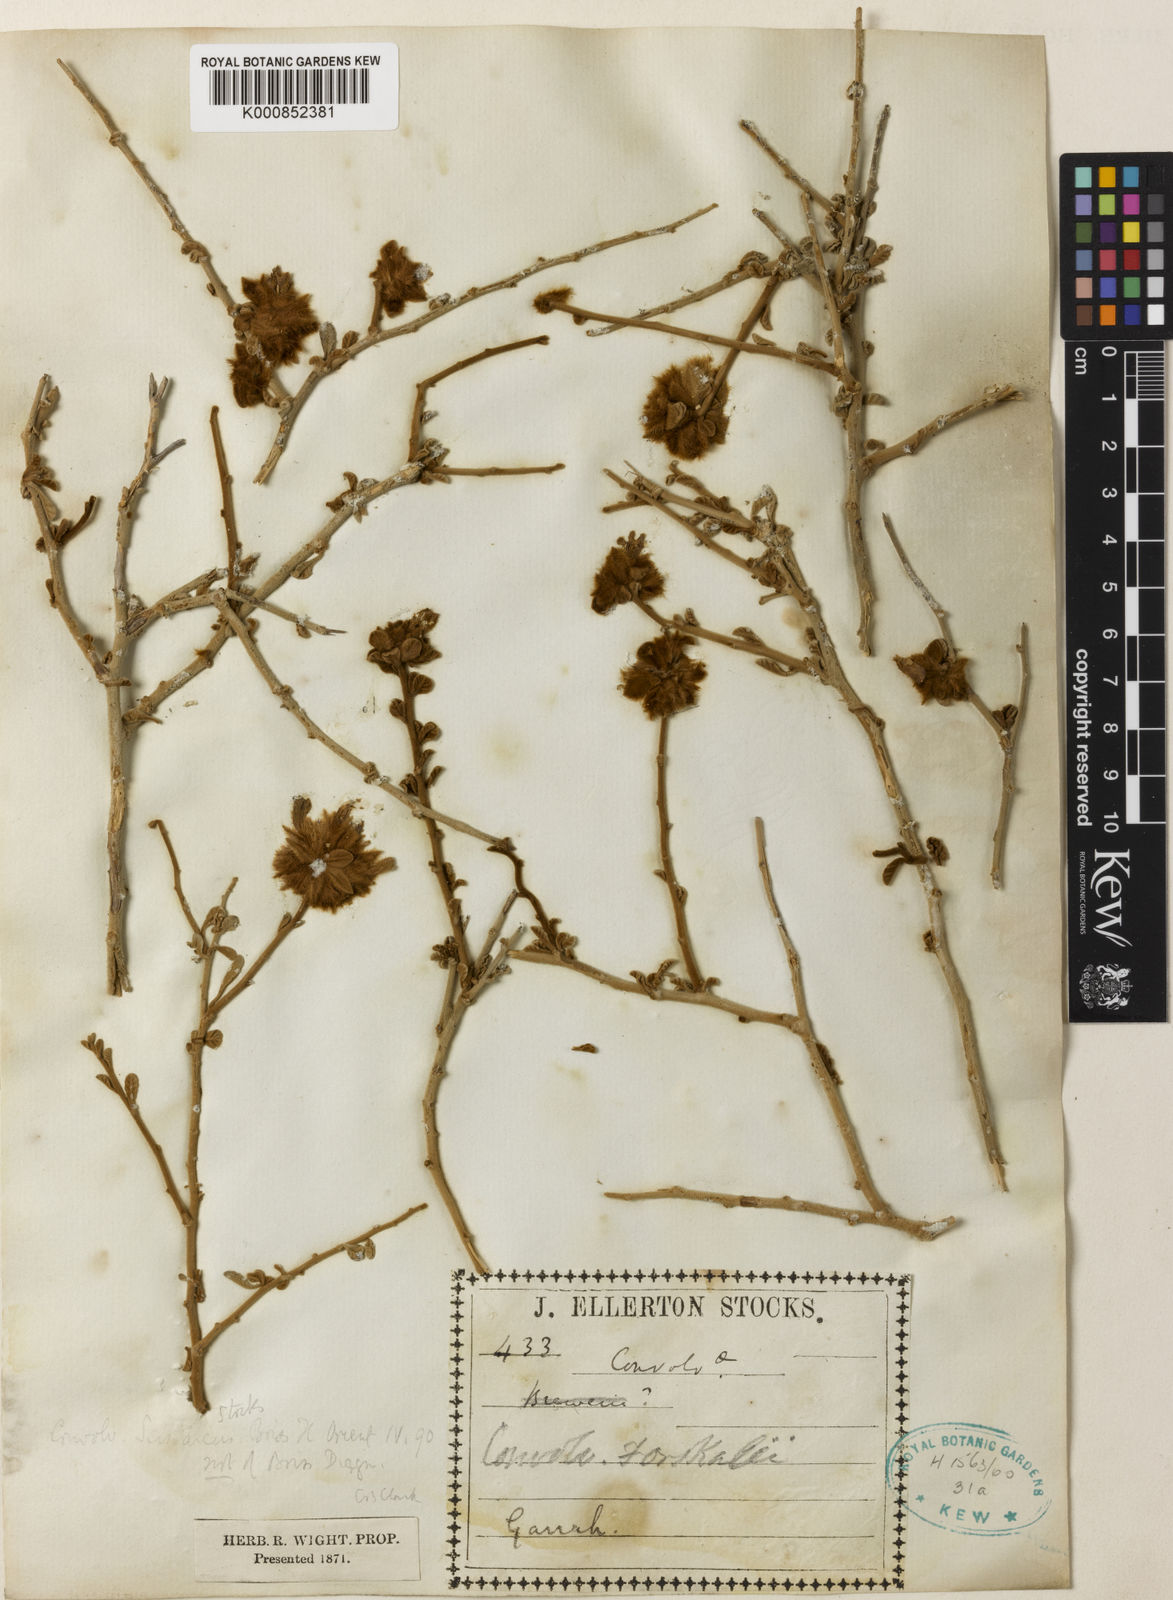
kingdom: Plantae
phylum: Tracheophyta
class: Magnoliopsida
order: Solanales
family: Convolvulaceae
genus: Ipomoea
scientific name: Ipomoea eriocarpa
